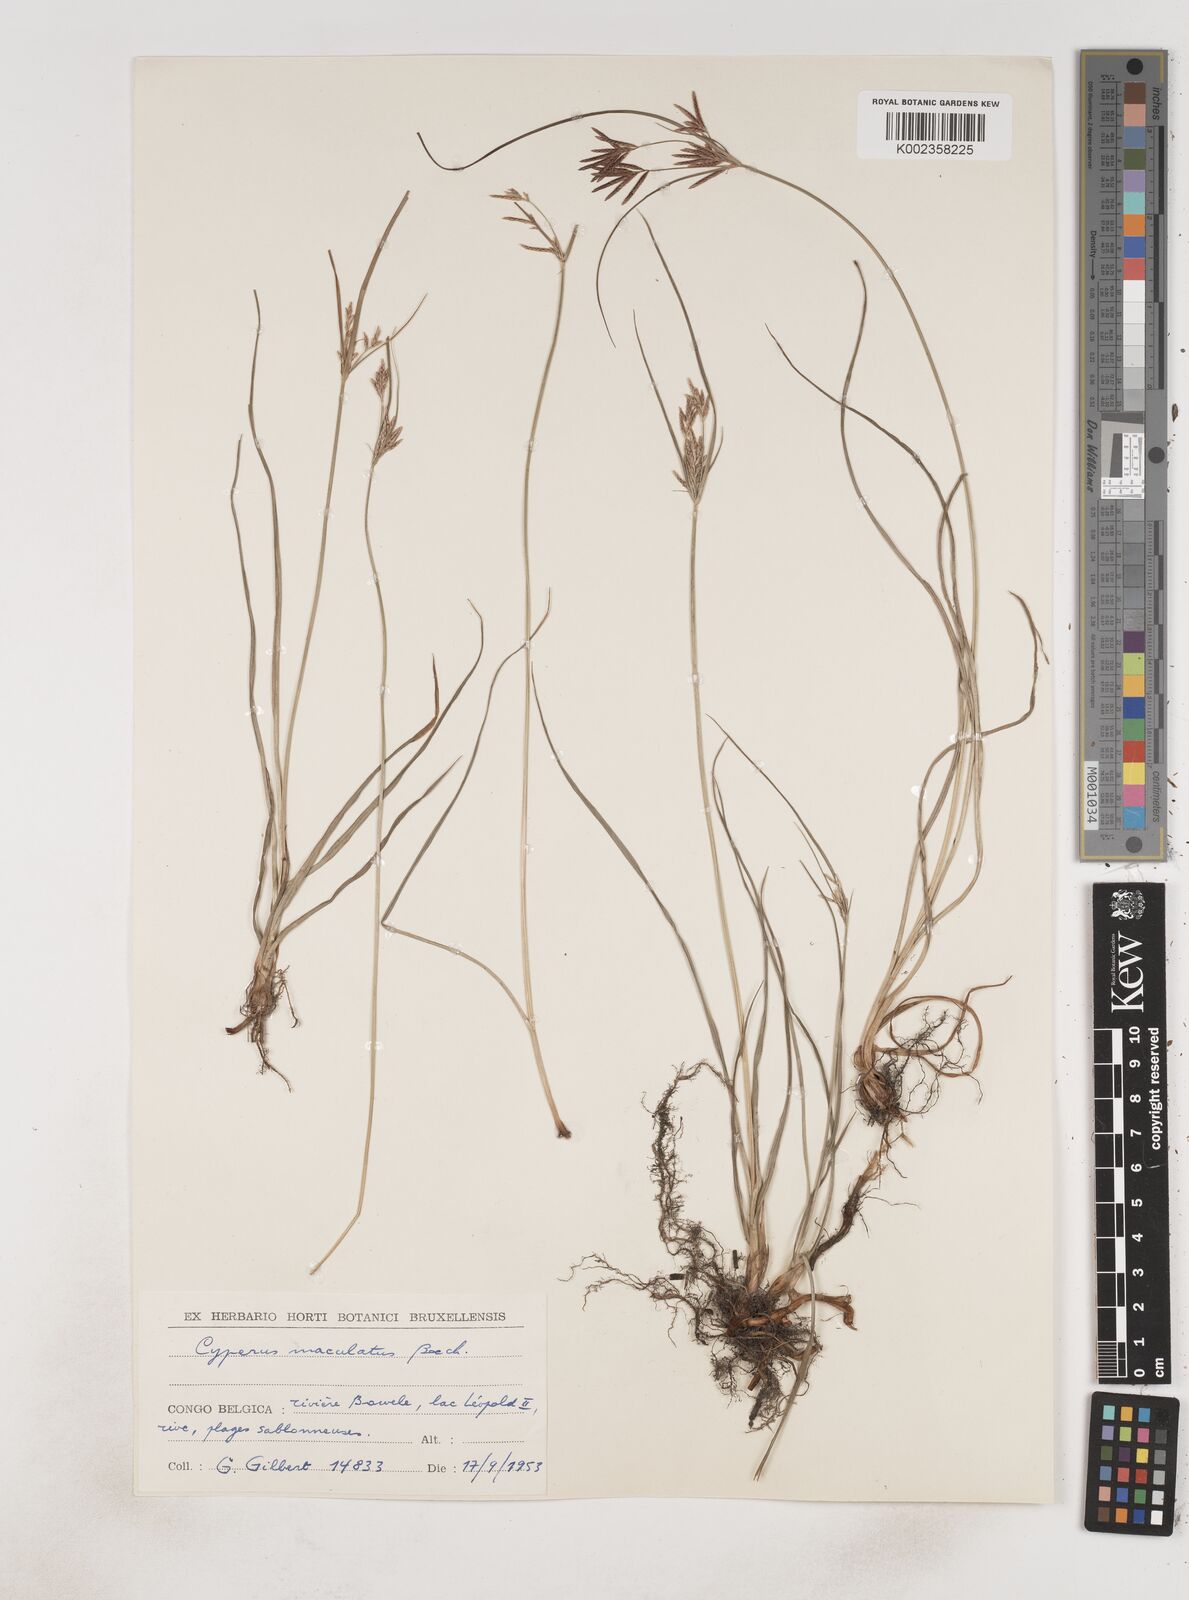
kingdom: Plantae
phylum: Tracheophyta
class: Liliopsida
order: Poales
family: Cyperaceae
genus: Cyperus
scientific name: Cyperus maculatus
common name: Maculated sedge
